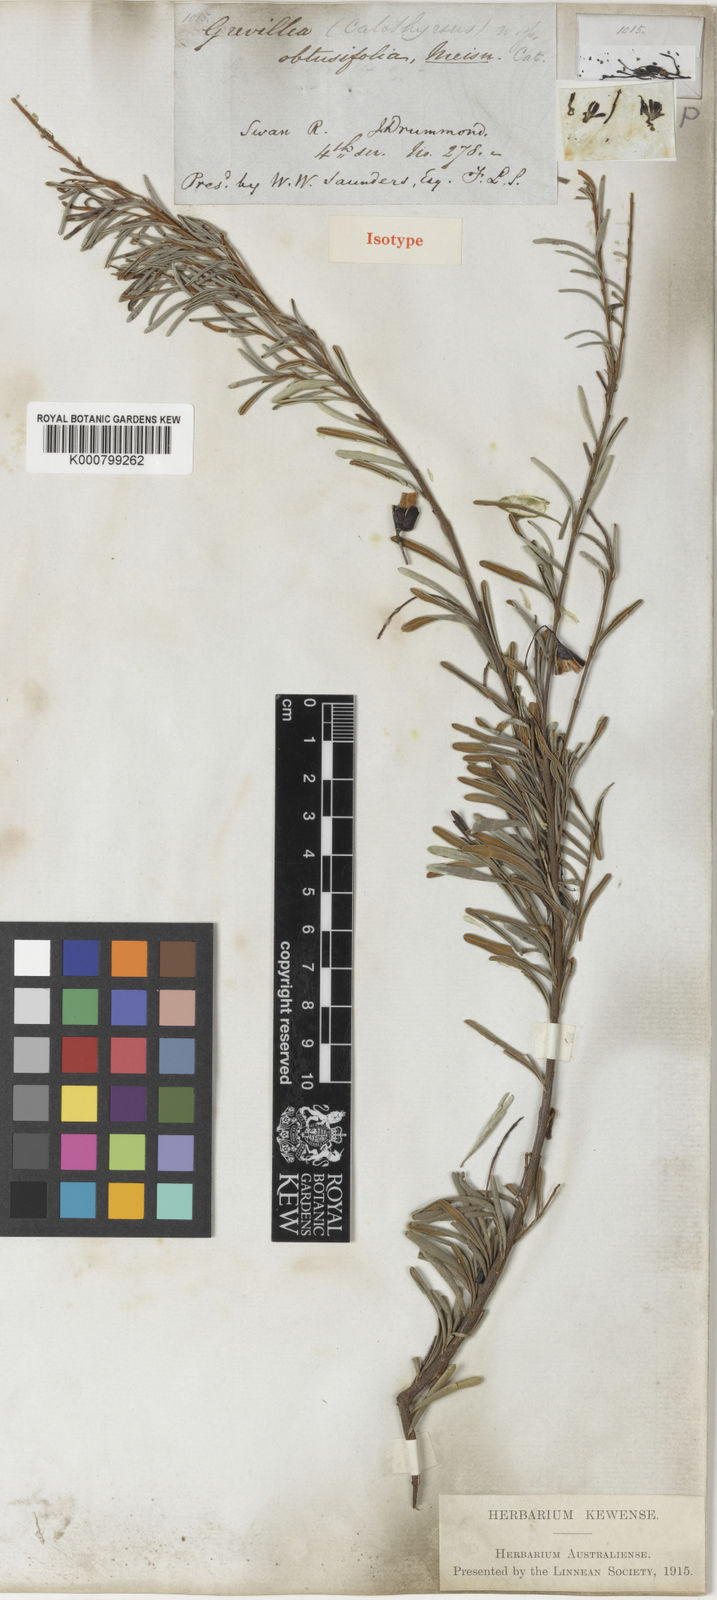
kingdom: Plantae
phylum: Tracheophyta
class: Magnoliopsida
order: Proteales
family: Proteaceae
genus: Grevillea
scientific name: Grevillea obtusifolia
